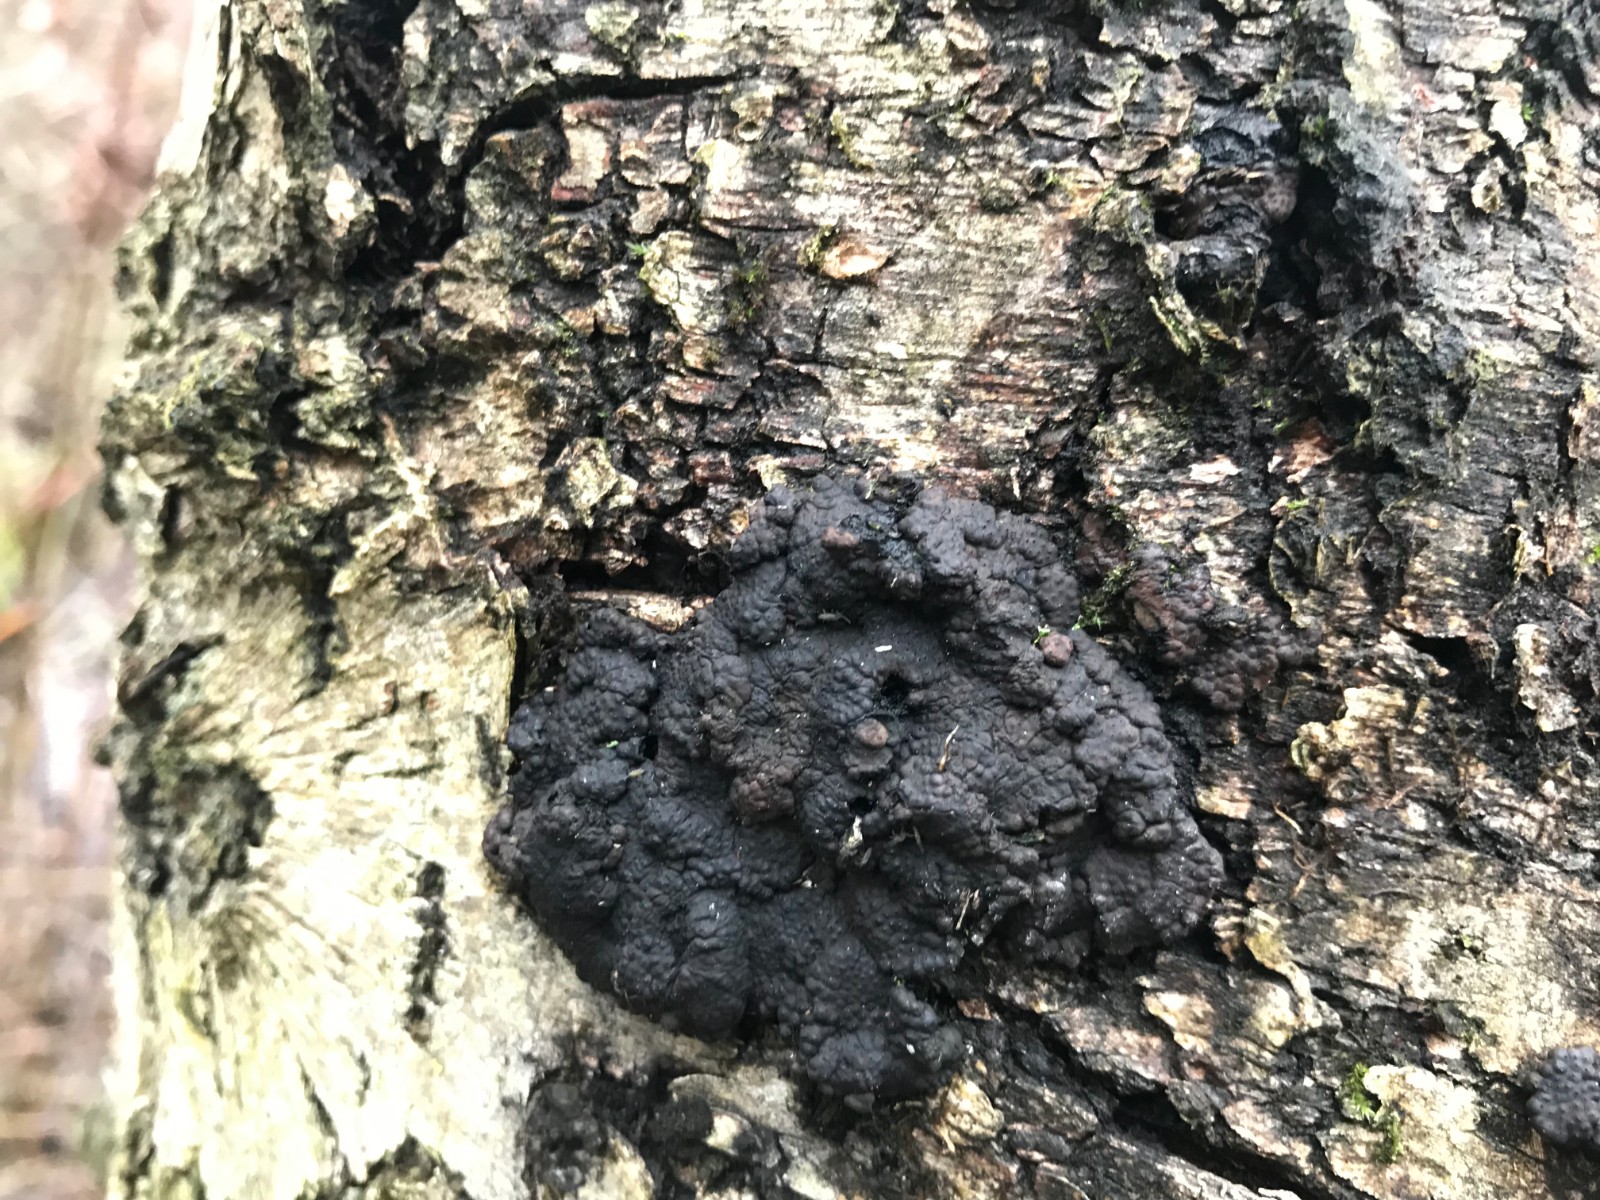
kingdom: Fungi
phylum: Ascomycota
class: Sordariomycetes
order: Xylariales
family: Hypoxylaceae
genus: Jackrogersella
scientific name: Jackrogersella multiformis
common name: foranderlig kulbær
